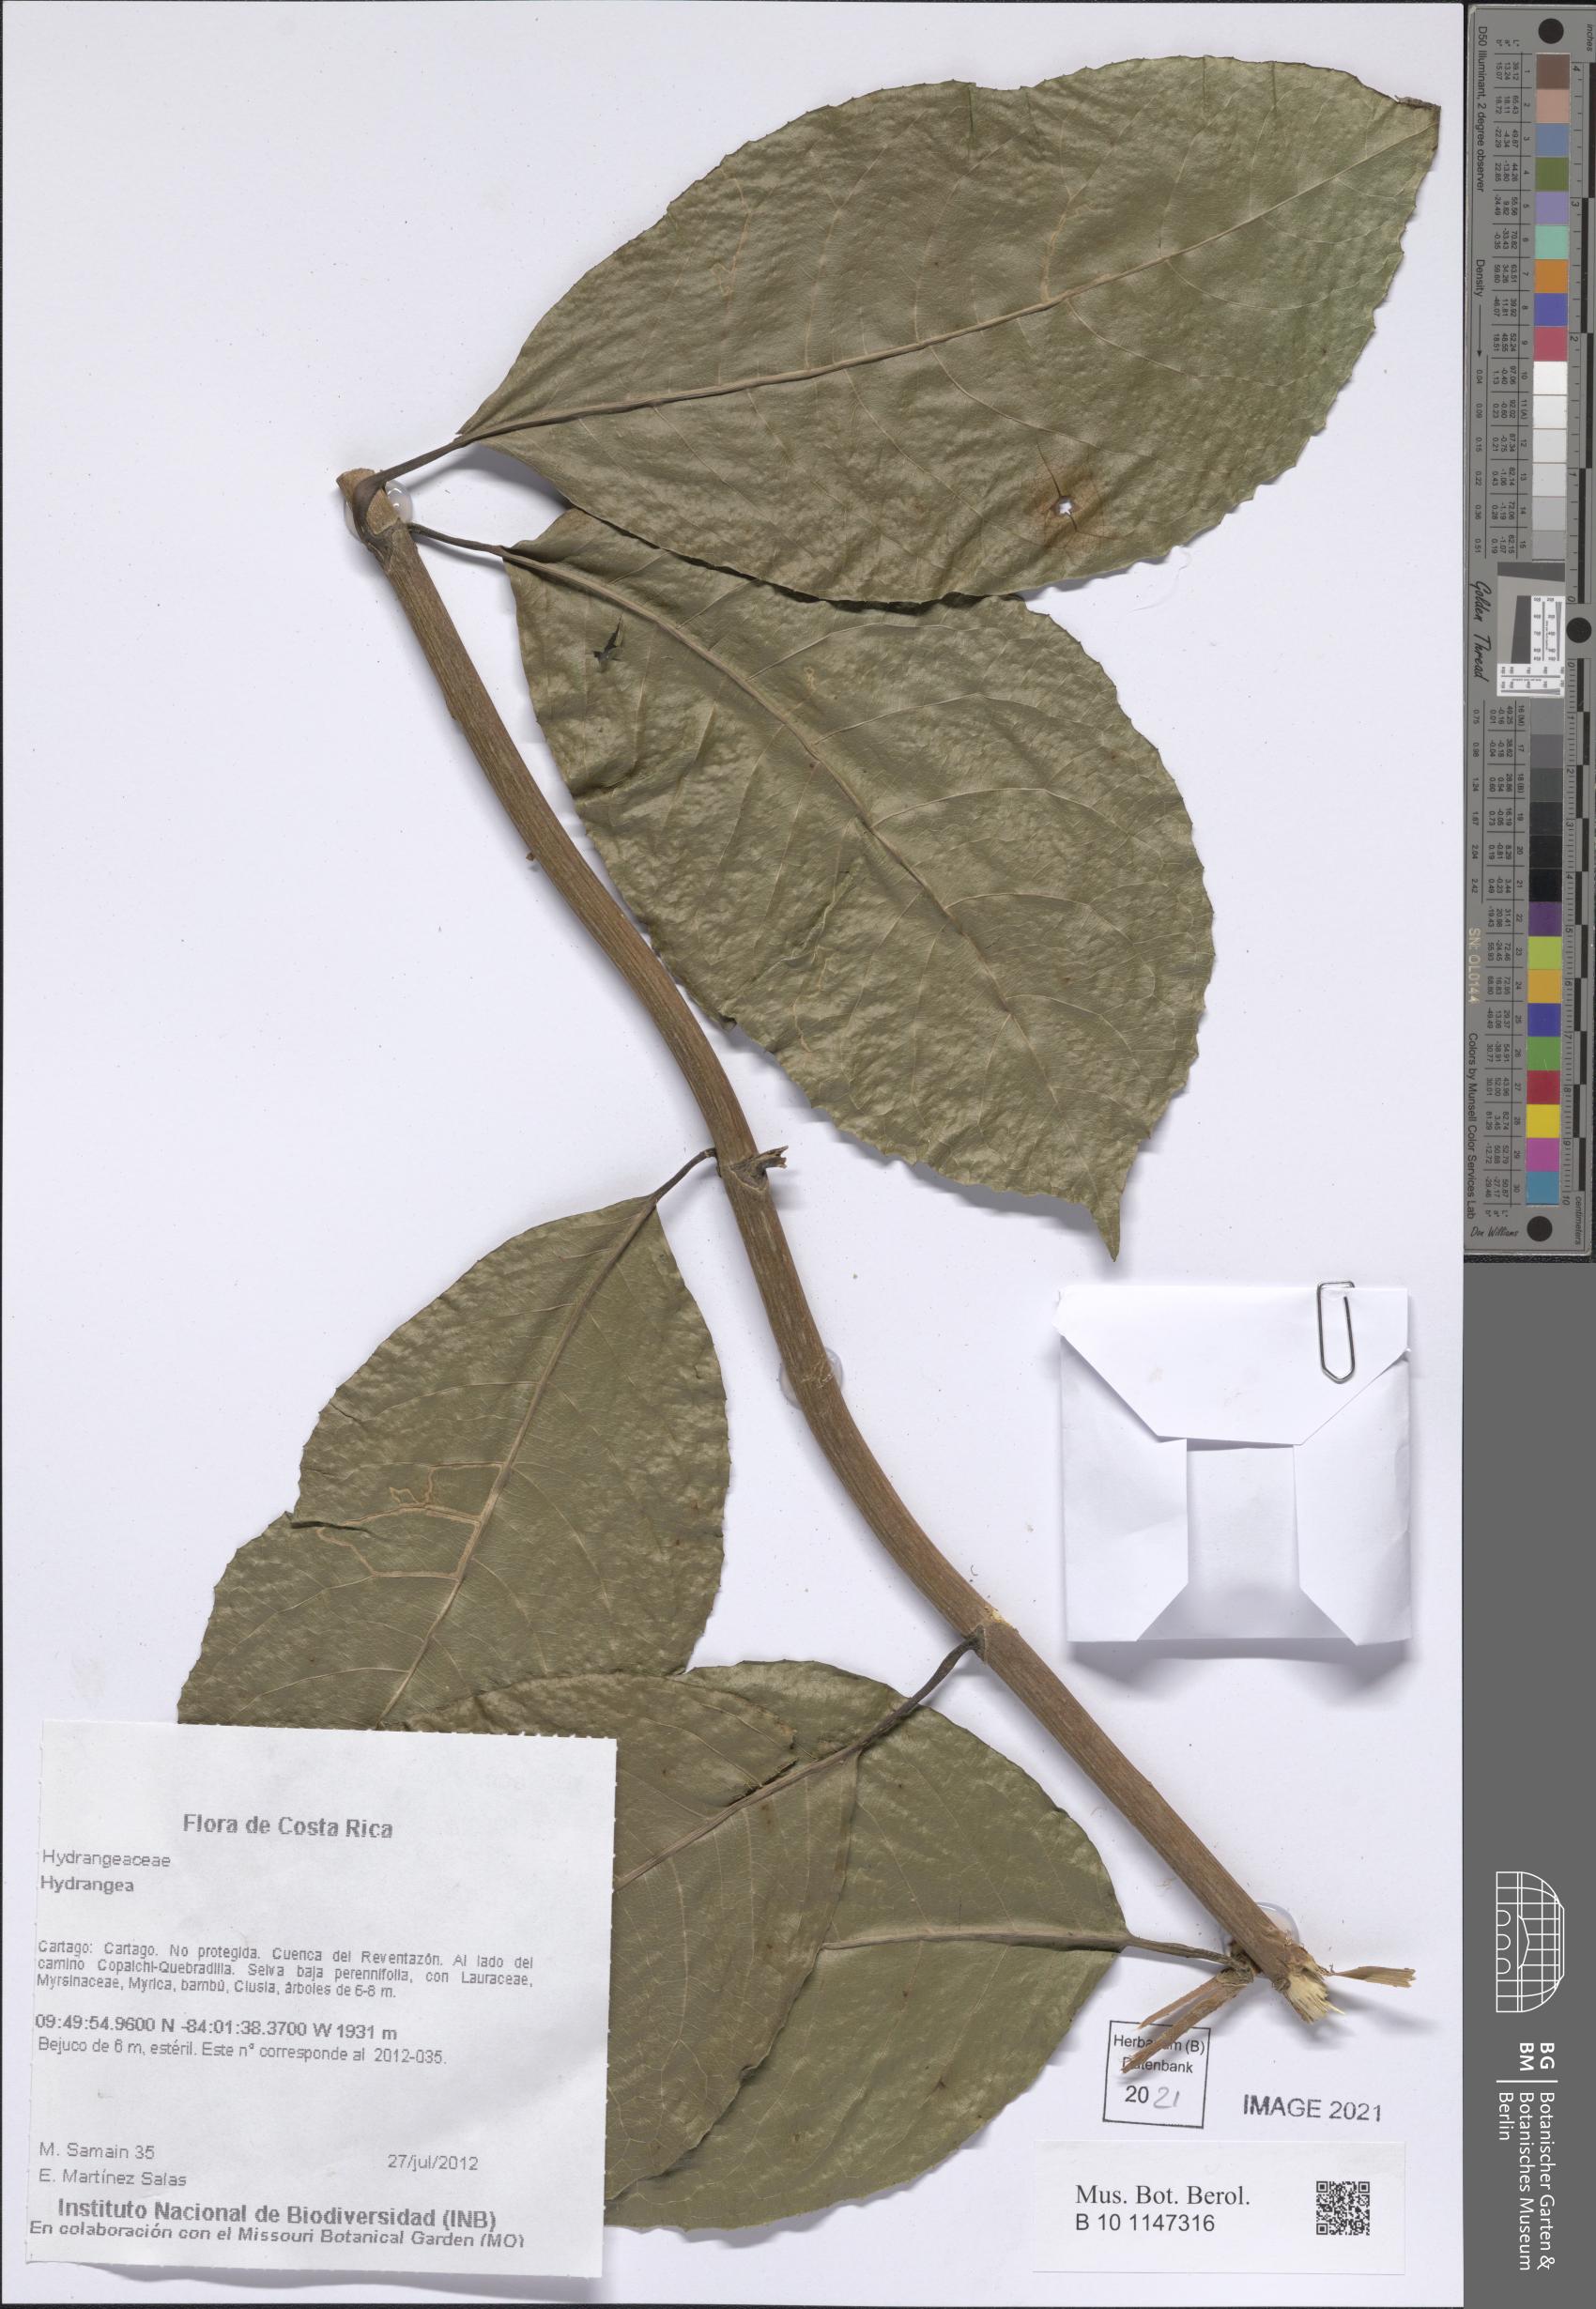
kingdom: Plantae
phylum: Tracheophyta
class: Magnoliopsida
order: Cornales
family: Hydrangeaceae
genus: Hydrangea
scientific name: Hydrangea
